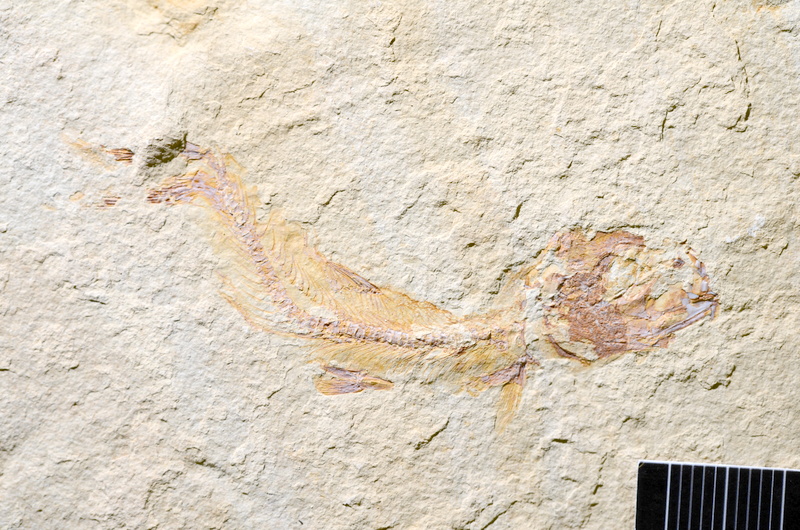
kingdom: Animalia
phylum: Chordata
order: Salmoniformes
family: Orthogonikleithridae
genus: Leptolepides
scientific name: Leptolepides
